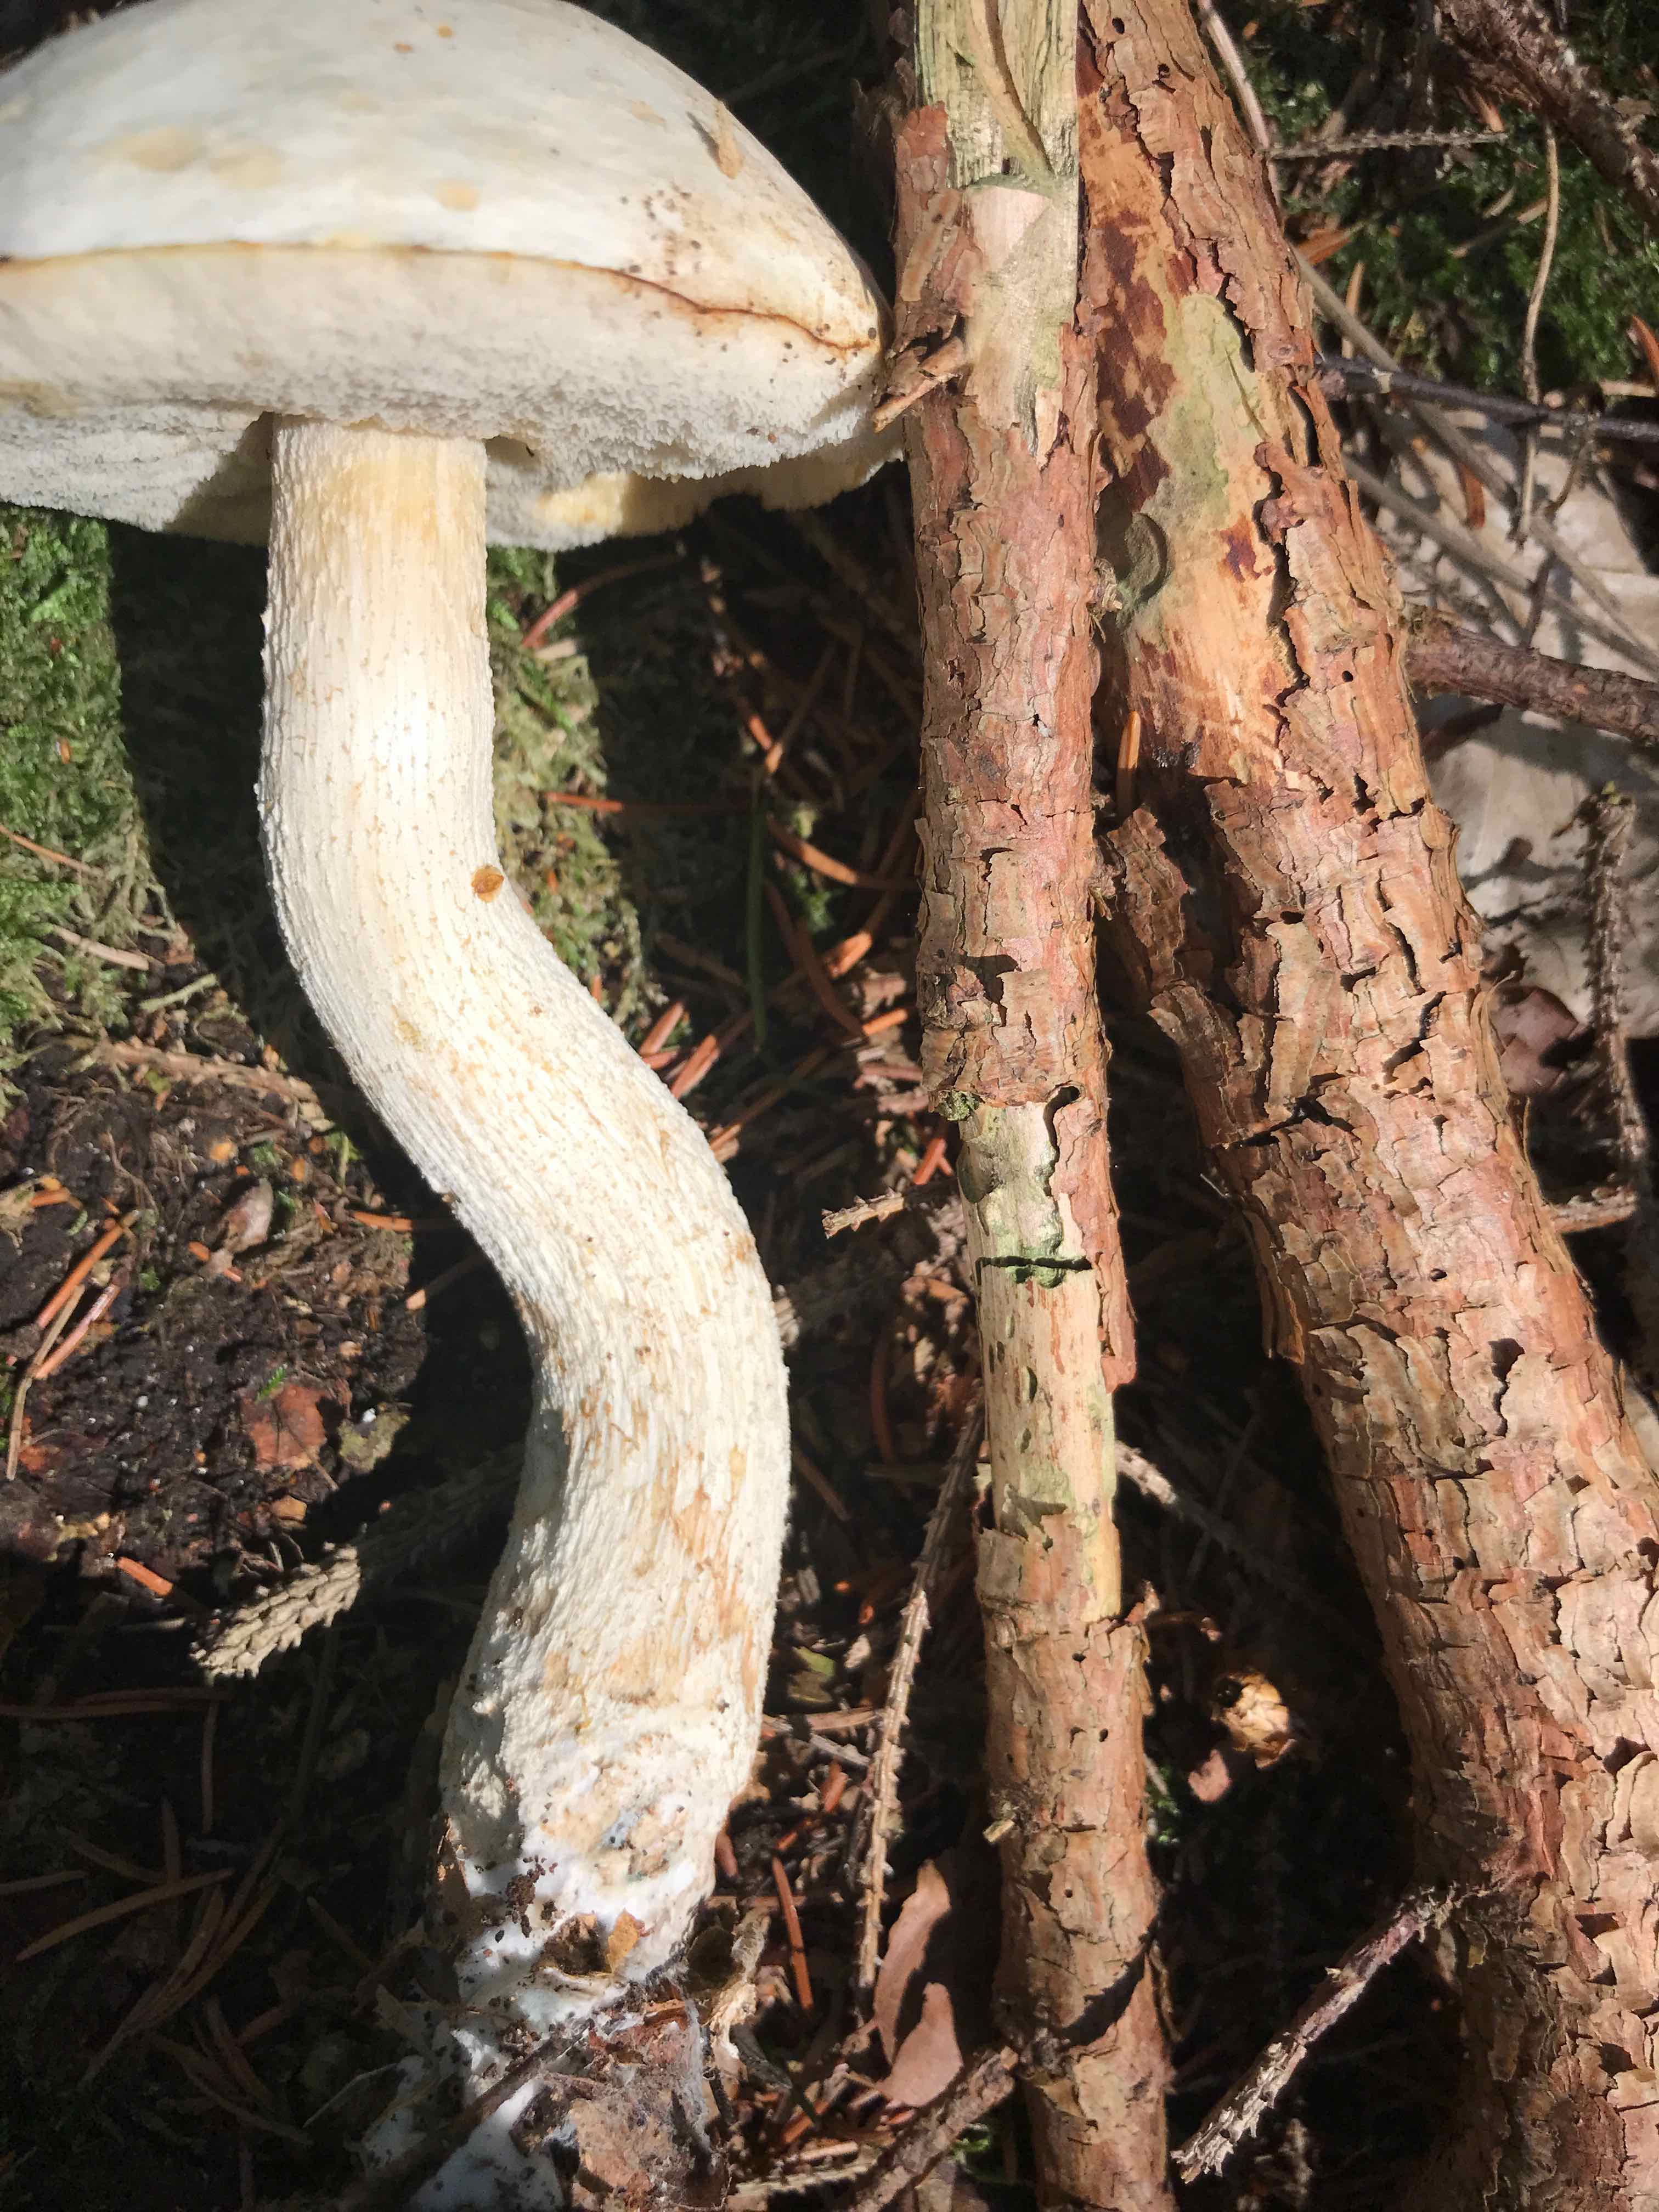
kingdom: Fungi
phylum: Basidiomycota
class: Agaricomycetes
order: Boletales
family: Boletaceae
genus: Leccinum
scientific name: Leccinum scabrum
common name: hvid skælrørhat
